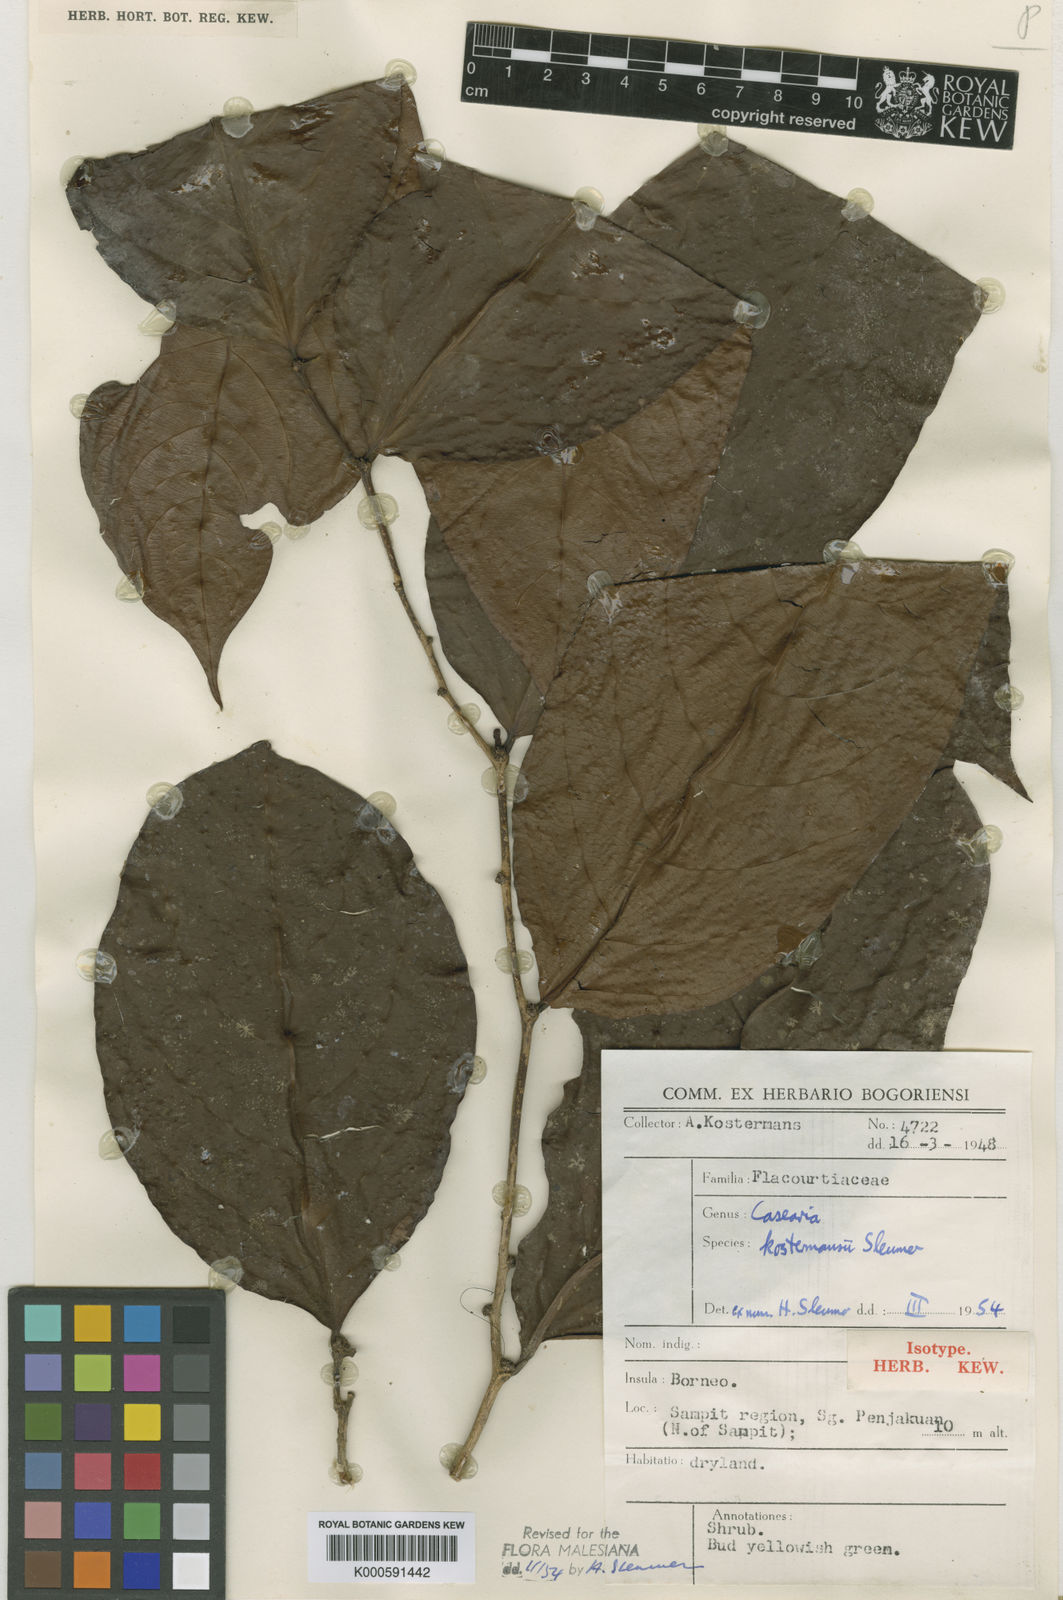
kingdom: Plantae
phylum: Tracheophyta
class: Magnoliopsida
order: Malpighiales
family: Salicaceae
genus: Casearia
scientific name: Casearia kostermansii
